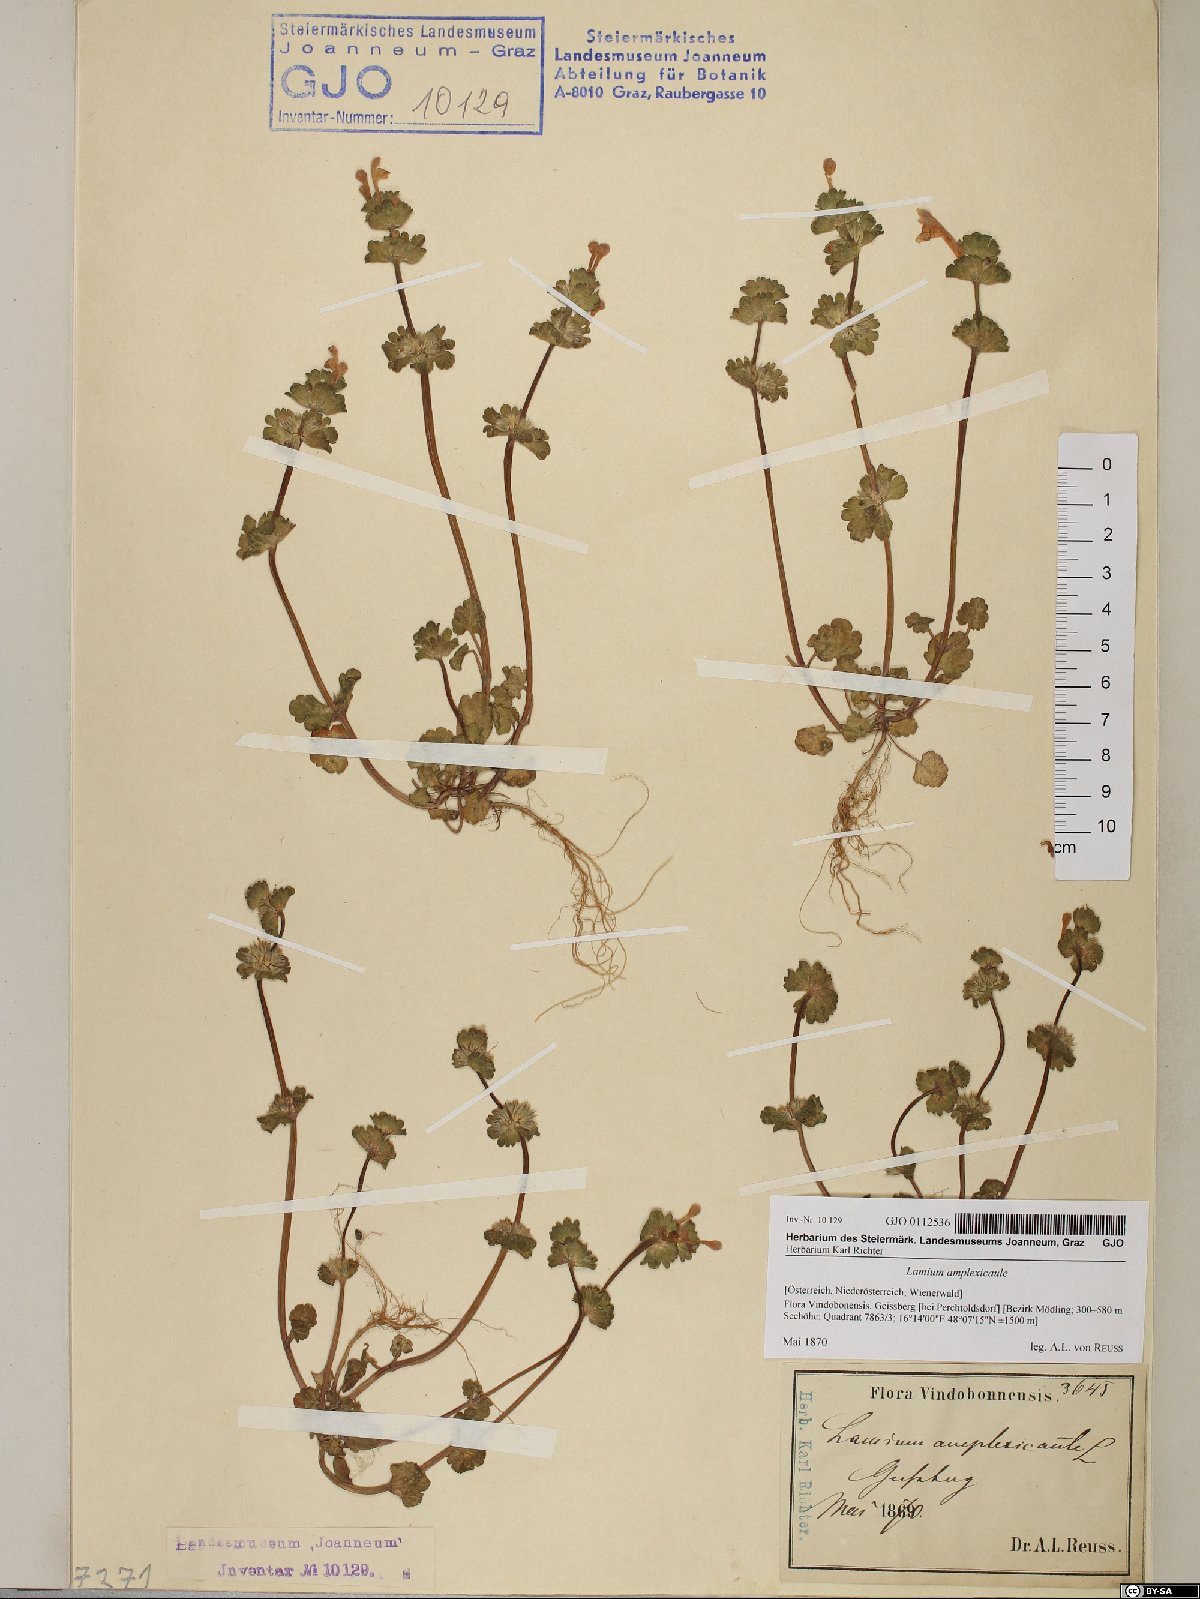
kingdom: Plantae
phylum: Tracheophyta
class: Magnoliopsida
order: Lamiales
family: Lamiaceae
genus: Lamium
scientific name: Lamium amplexicaule
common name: Henbit dead-nettle
